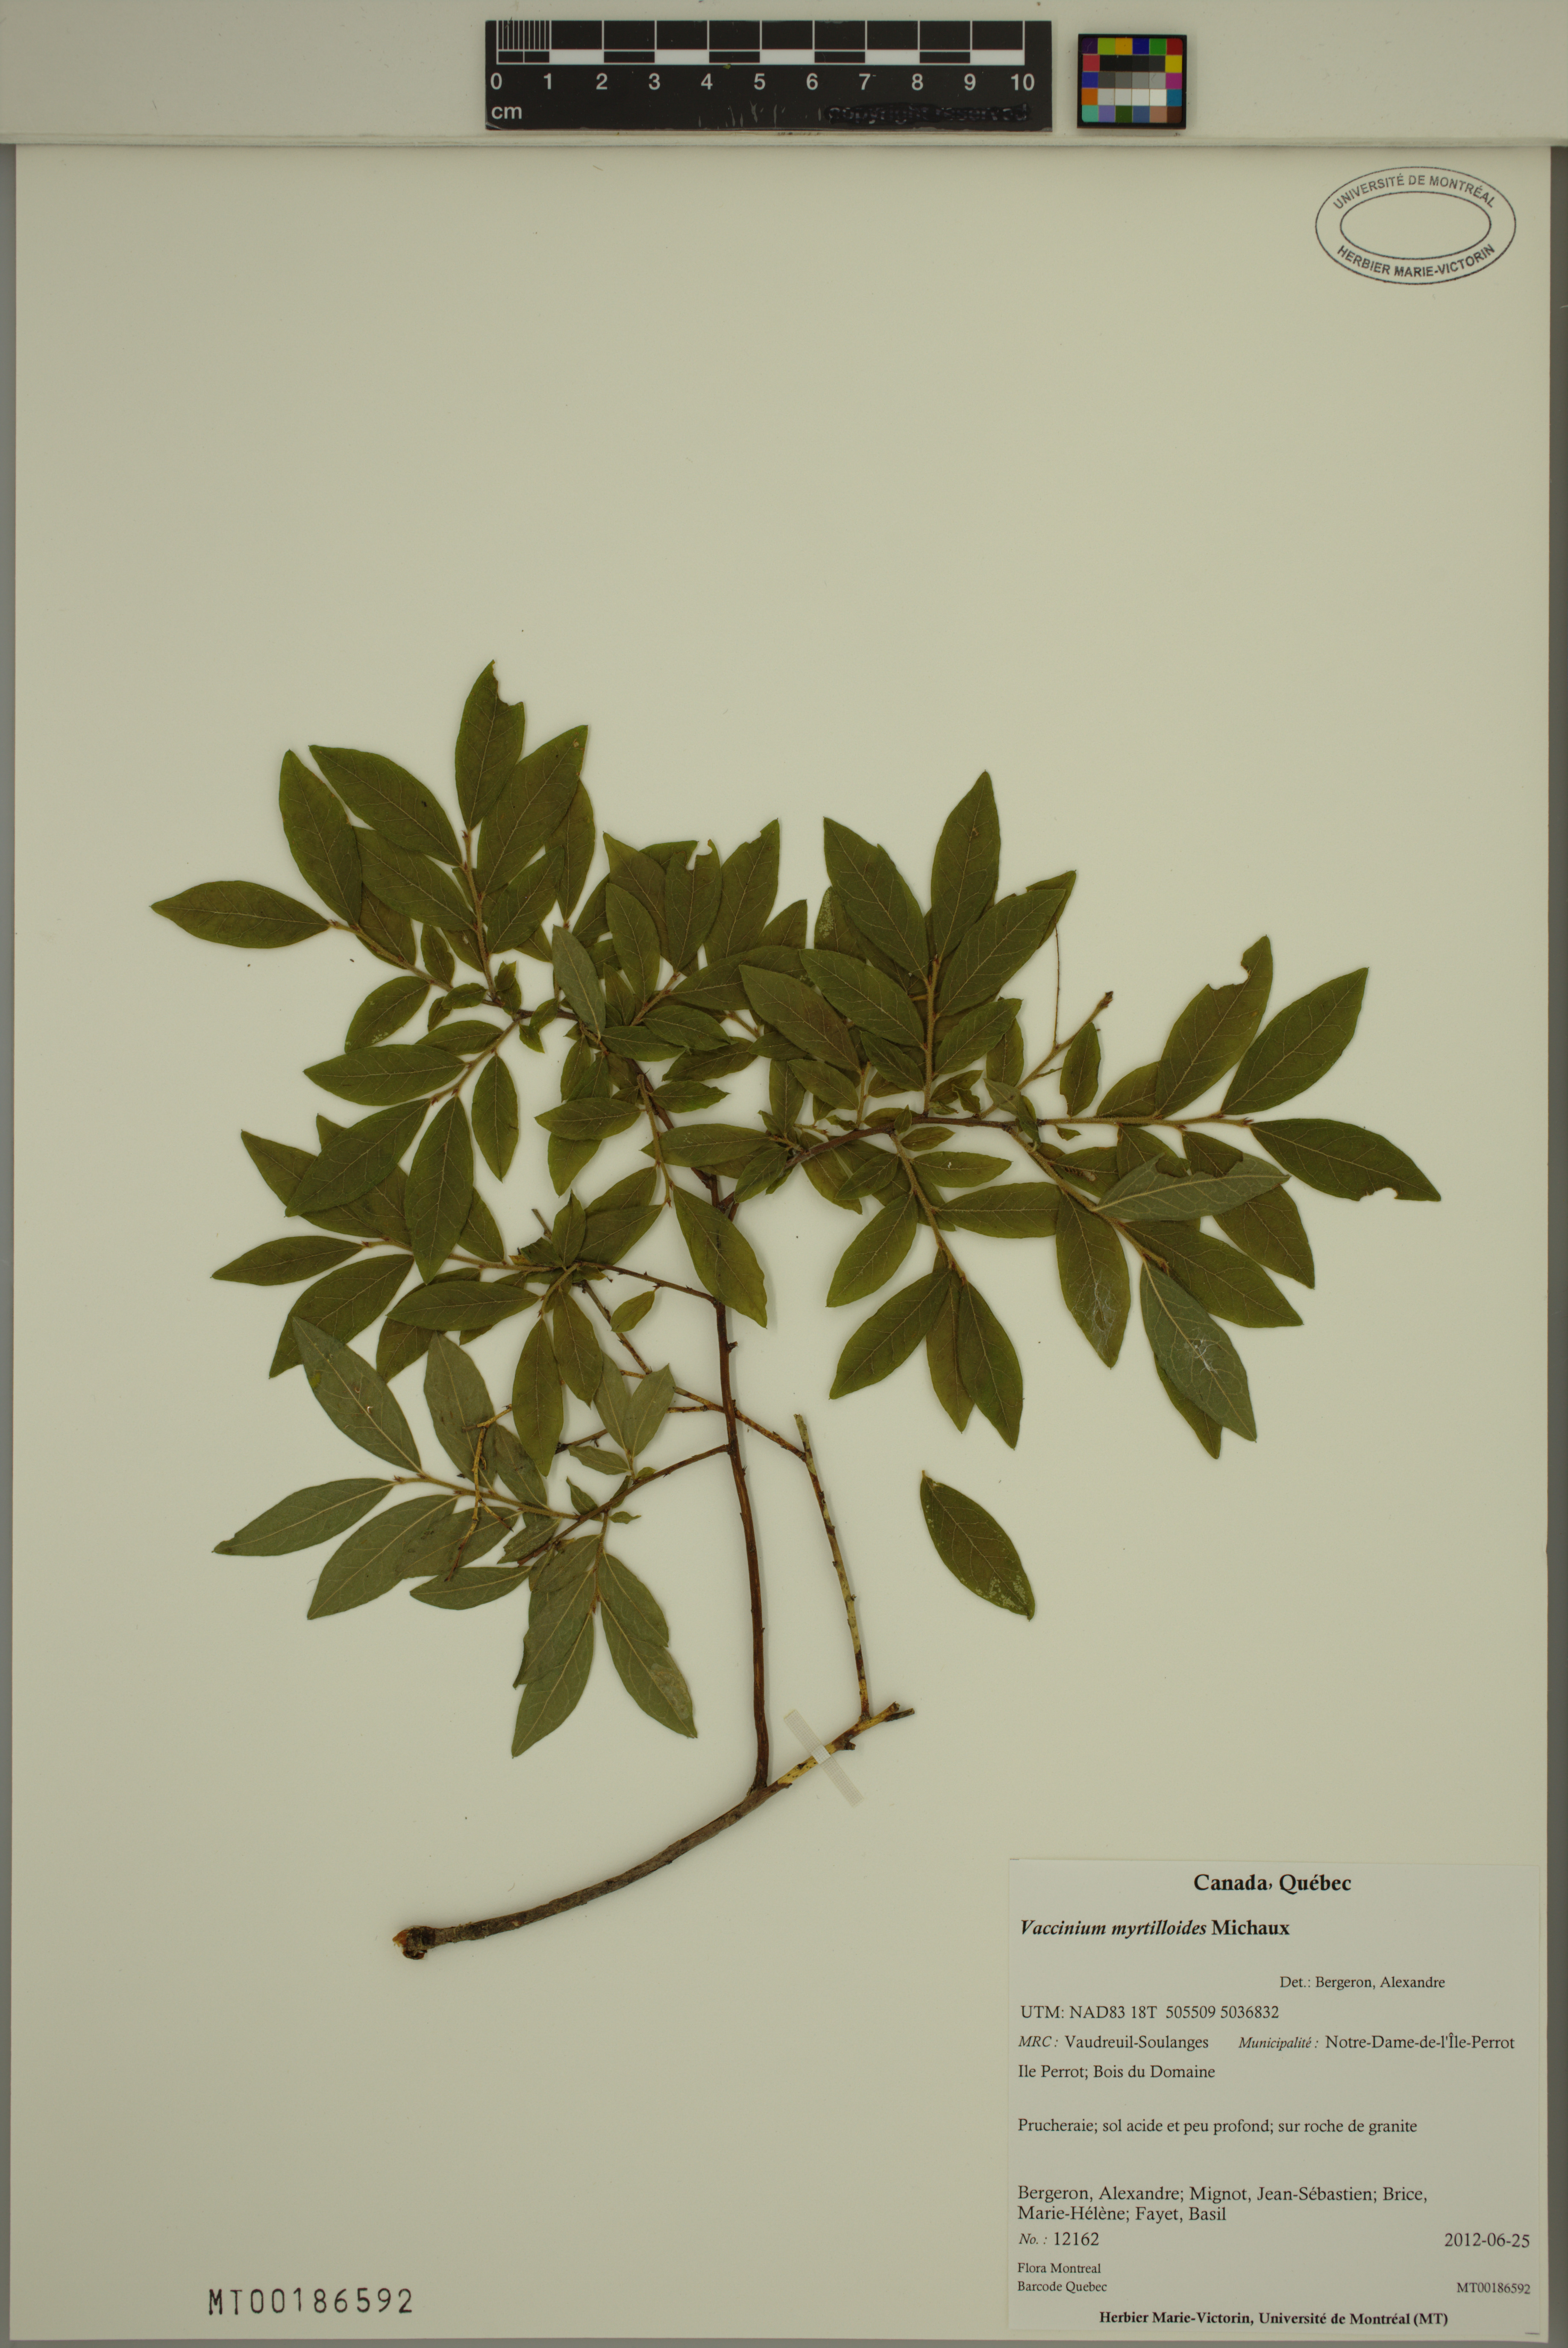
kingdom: Plantae
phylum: Tracheophyta
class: Magnoliopsida
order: Ericales
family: Ericaceae
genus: Vaccinium
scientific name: Vaccinium myrtilloides
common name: Canada blueberry
